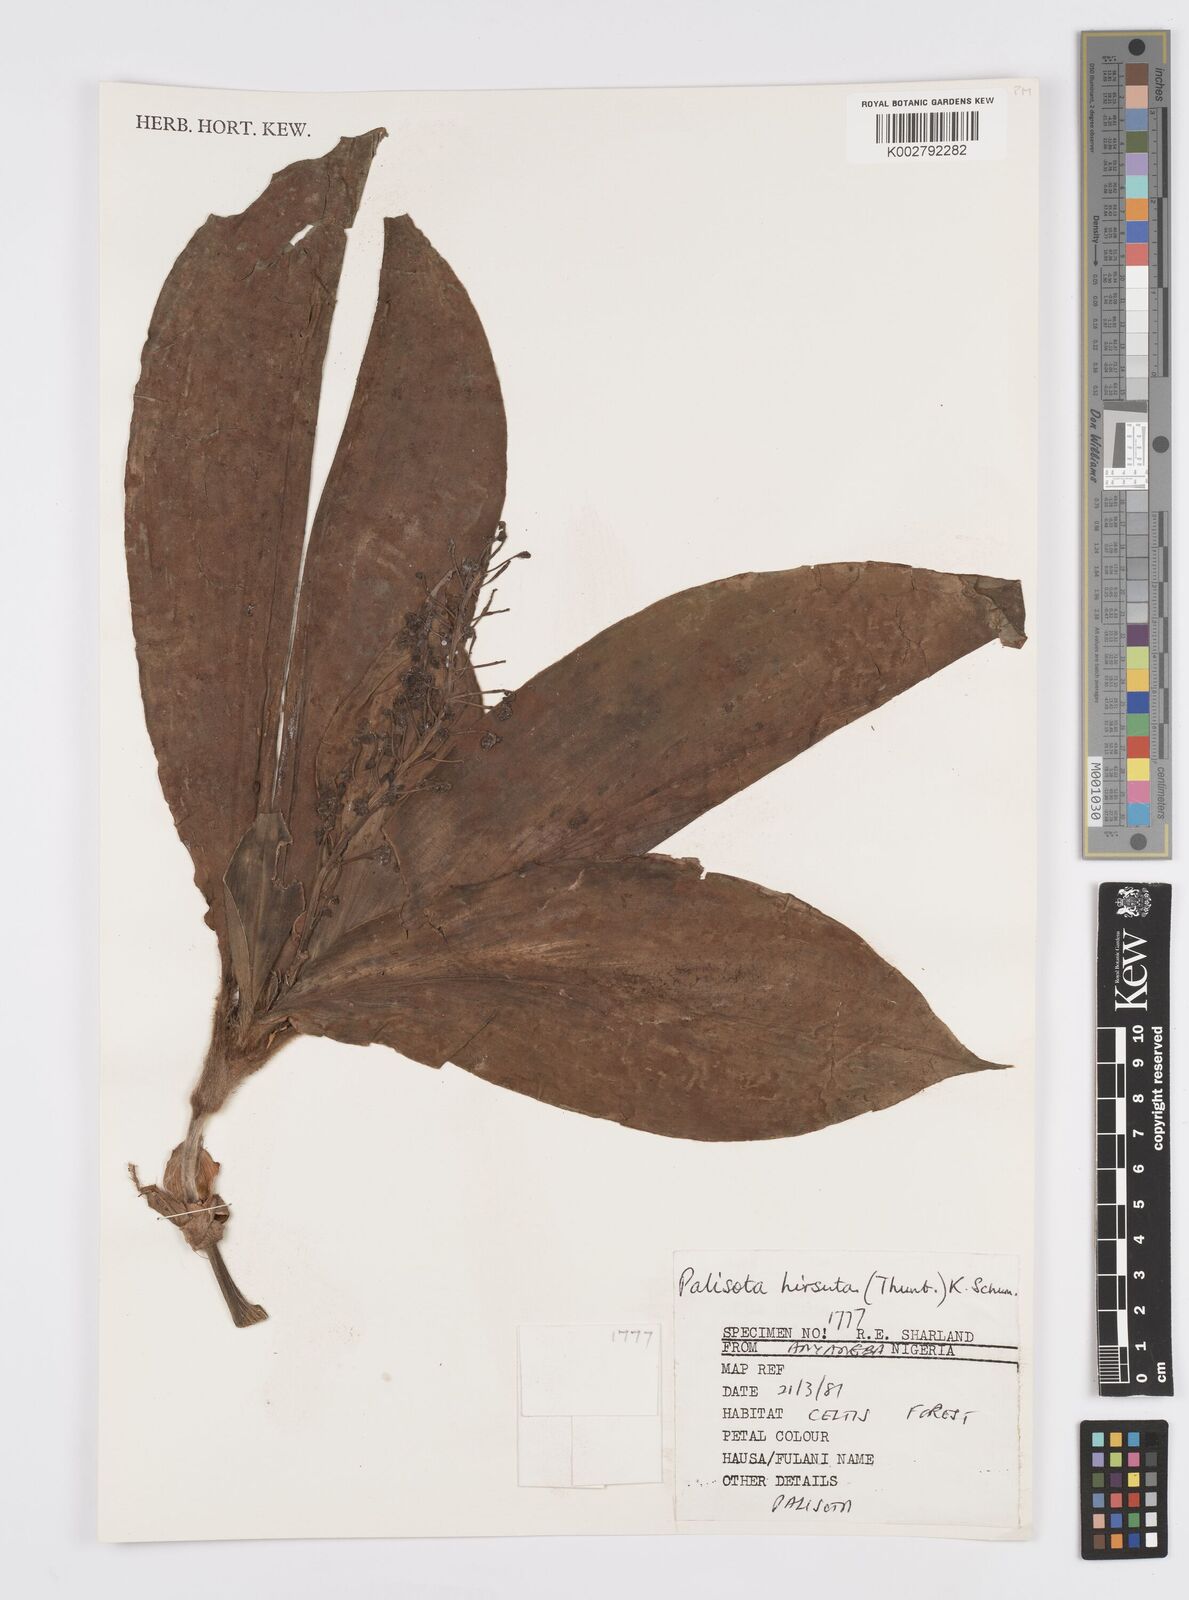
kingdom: Plantae
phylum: Tracheophyta
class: Liliopsida
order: Commelinales
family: Commelinaceae
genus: Palisota
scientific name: Palisota hirsuta
